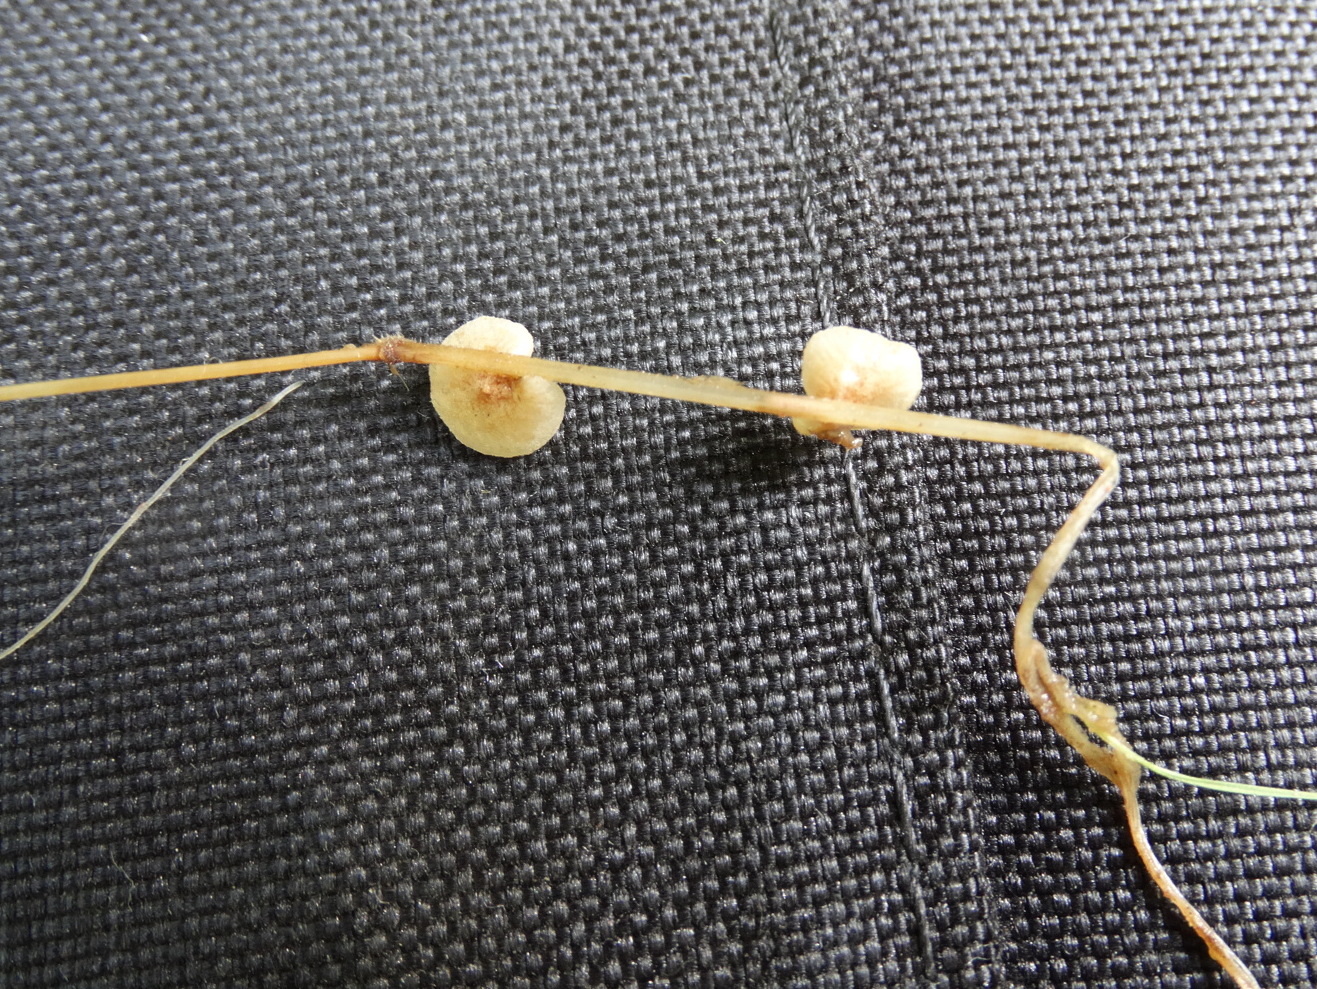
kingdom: Fungi
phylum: Basidiomycota
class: Agaricomycetes
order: Agaricales
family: Strophariaceae
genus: Deconica
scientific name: Deconica phillipsii
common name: almindelig stråhat
